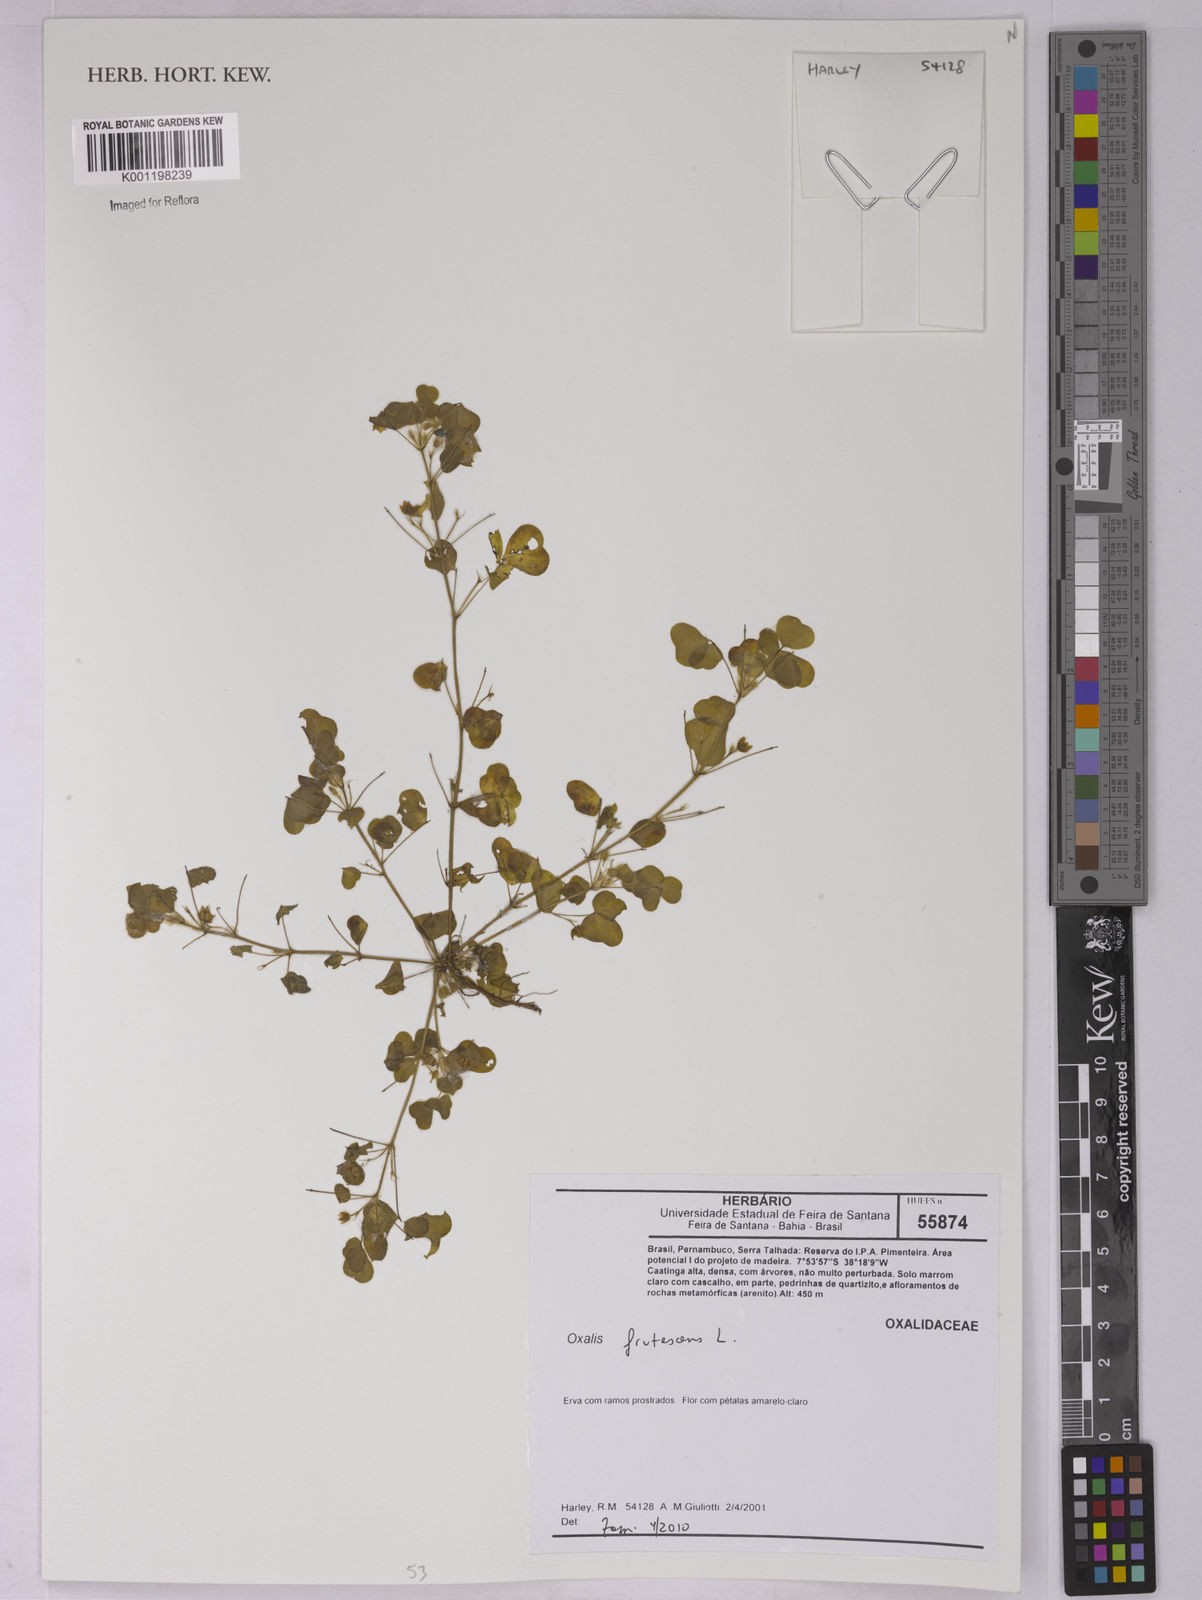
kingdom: Plantae
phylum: Tracheophyta
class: Magnoliopsida
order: Oxalidales
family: Oxalidaceae
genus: Oxalis
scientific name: Oxalis frutescens
